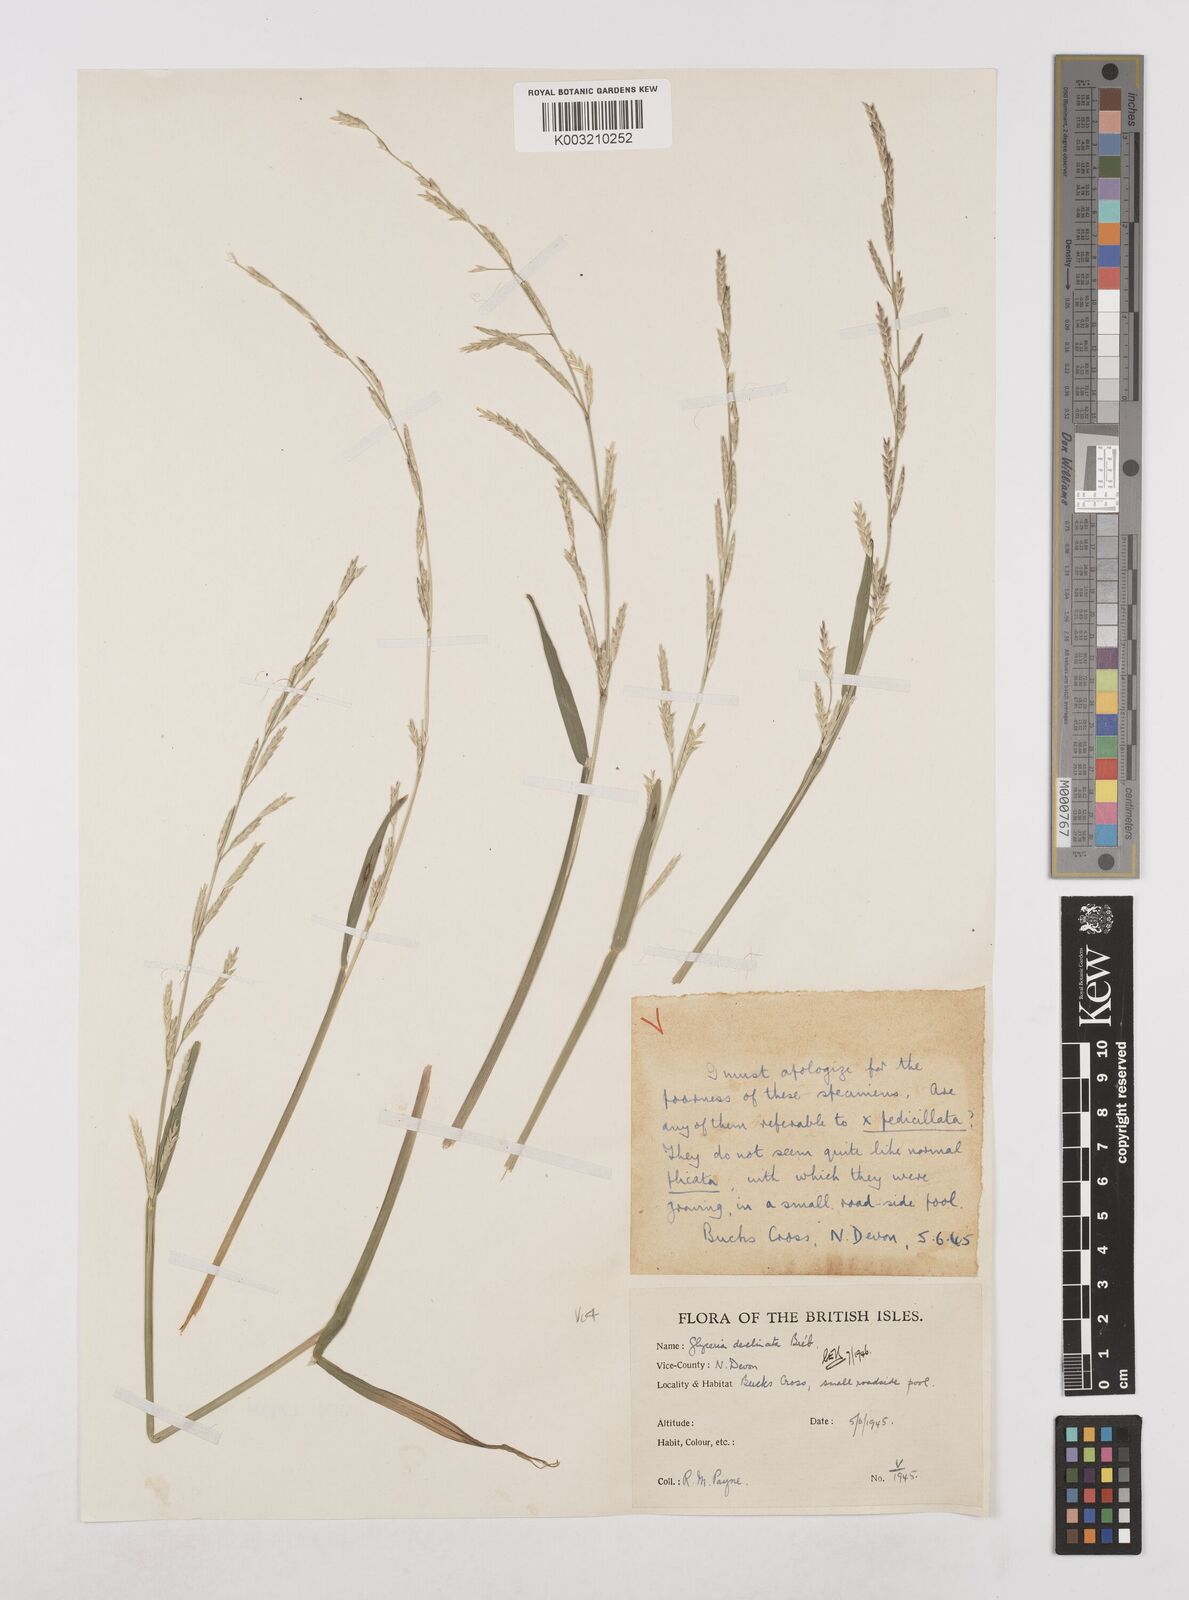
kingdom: Plantae
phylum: Tracheophyta
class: Liliopsida
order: Poales
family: Poaceae
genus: Glyceria
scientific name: Glyceria declinata
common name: Small sweet-grass
